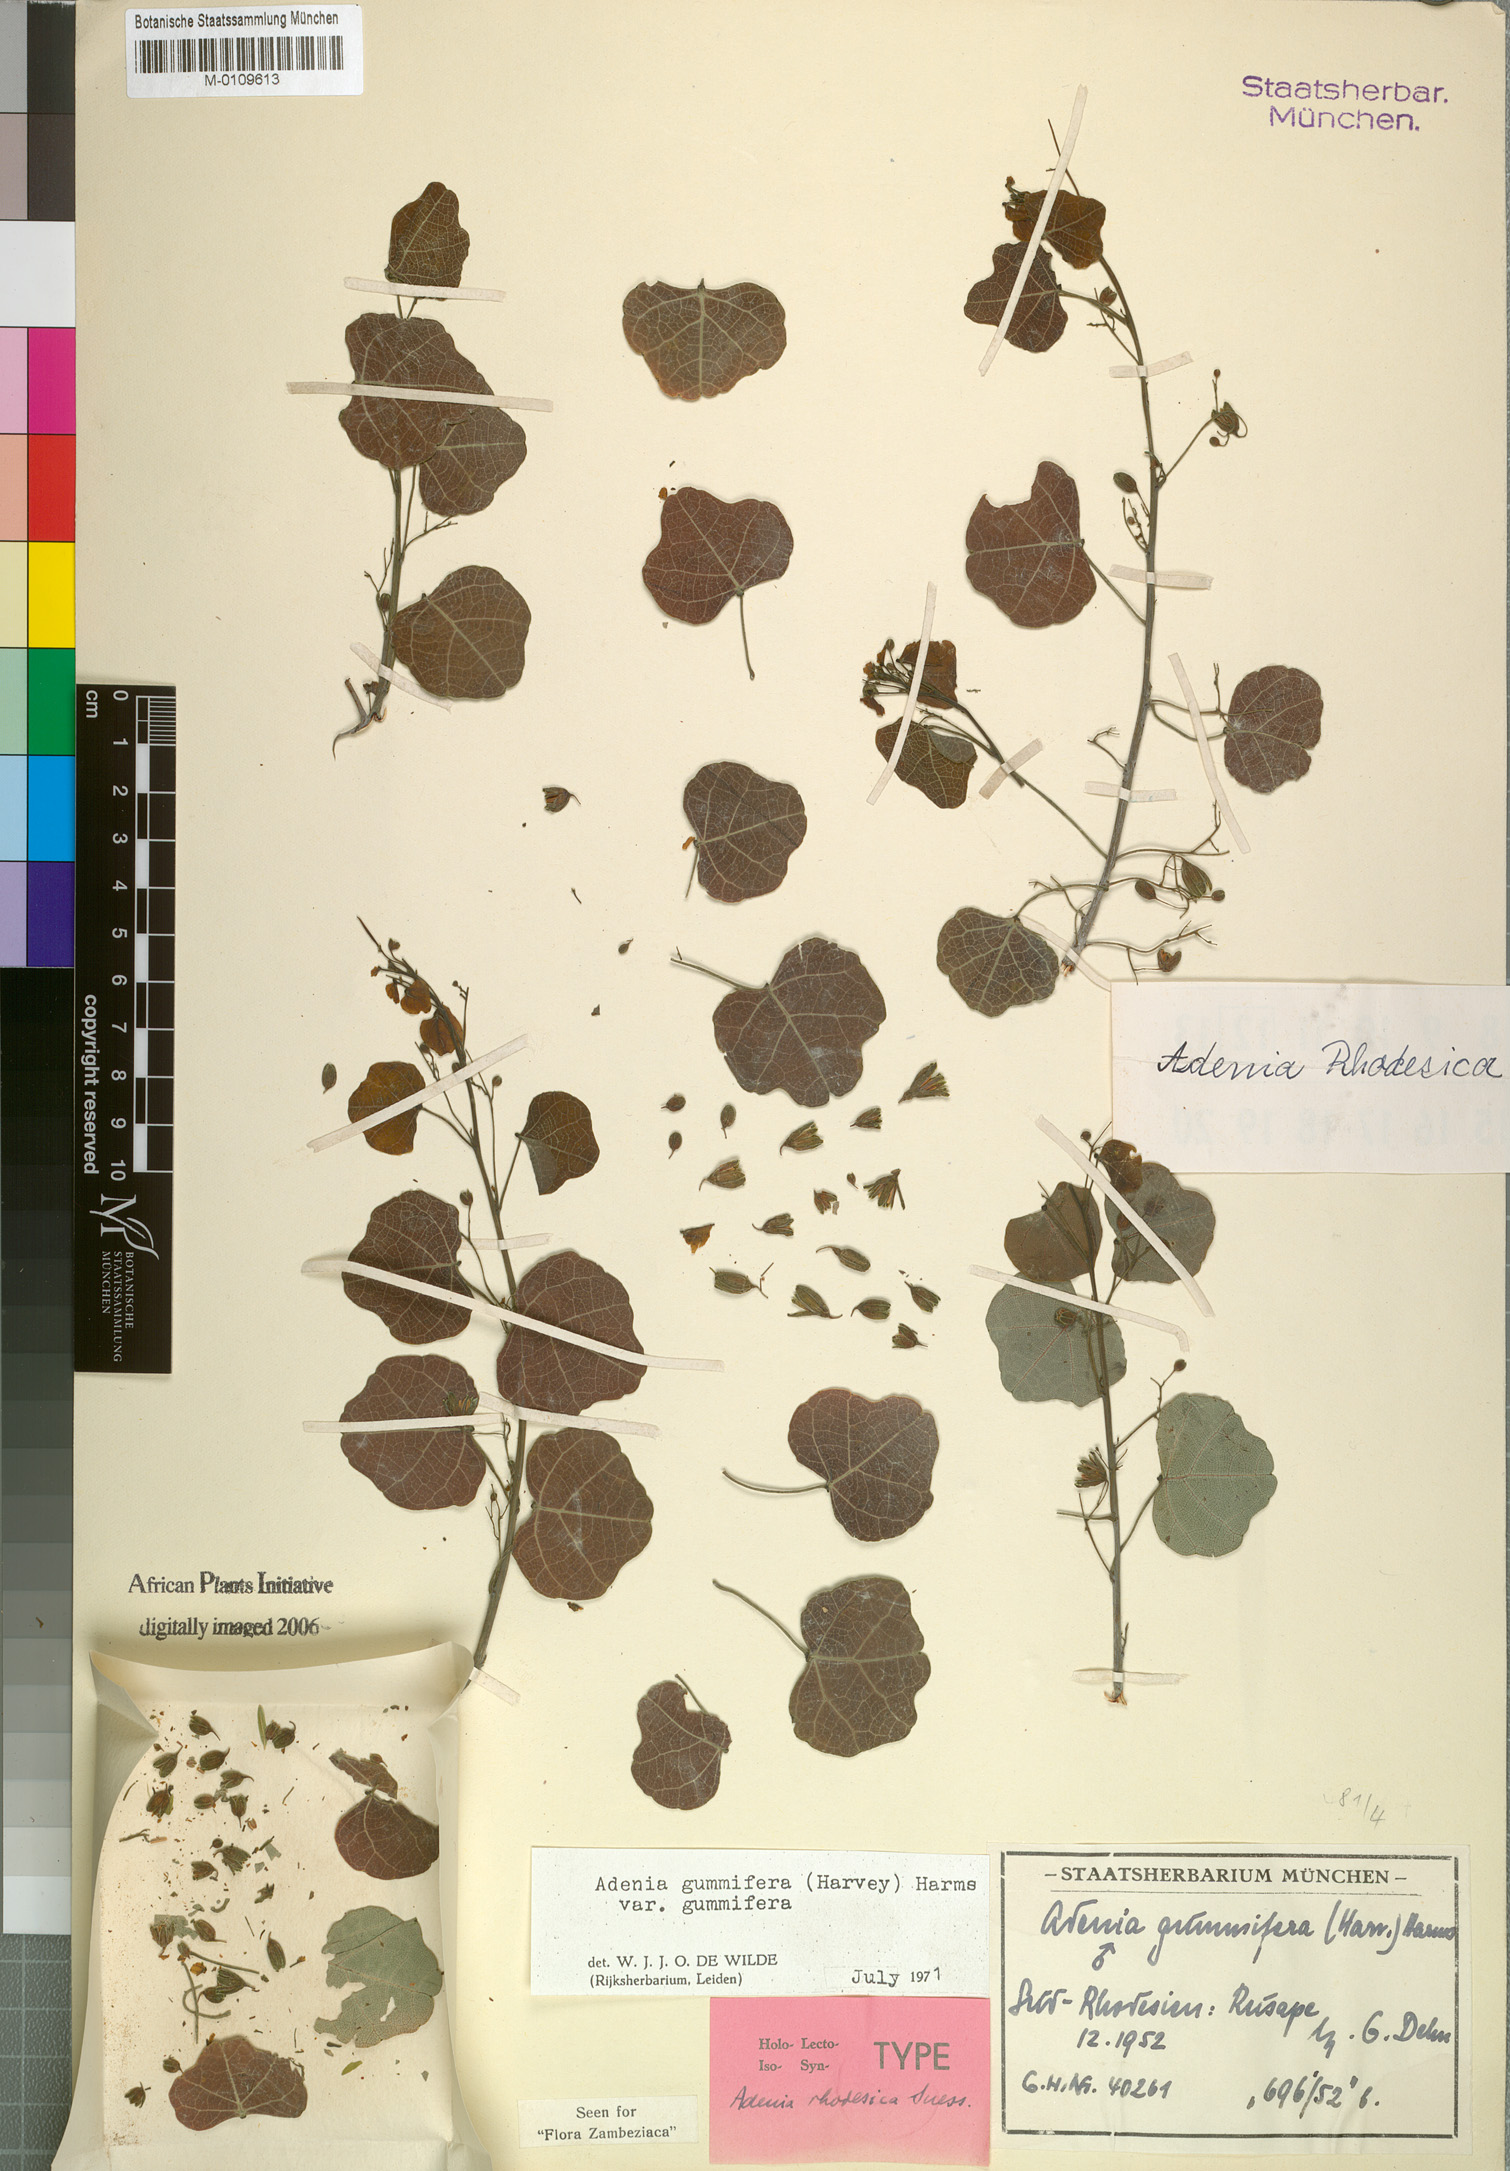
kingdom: Plantae
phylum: Tracheophyta
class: Magnoliopsida
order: Malpighiales
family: Passifloraceae
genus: Adenia
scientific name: Adenia cissampeloides
